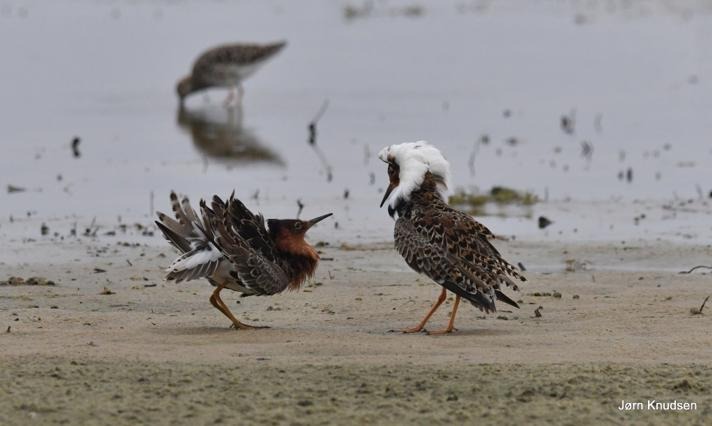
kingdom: Animalia
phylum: Chordata
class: Aves
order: Charadriiformes
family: Scolopacidae
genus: Calidris
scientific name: Calidris pugnax
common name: Brushane
